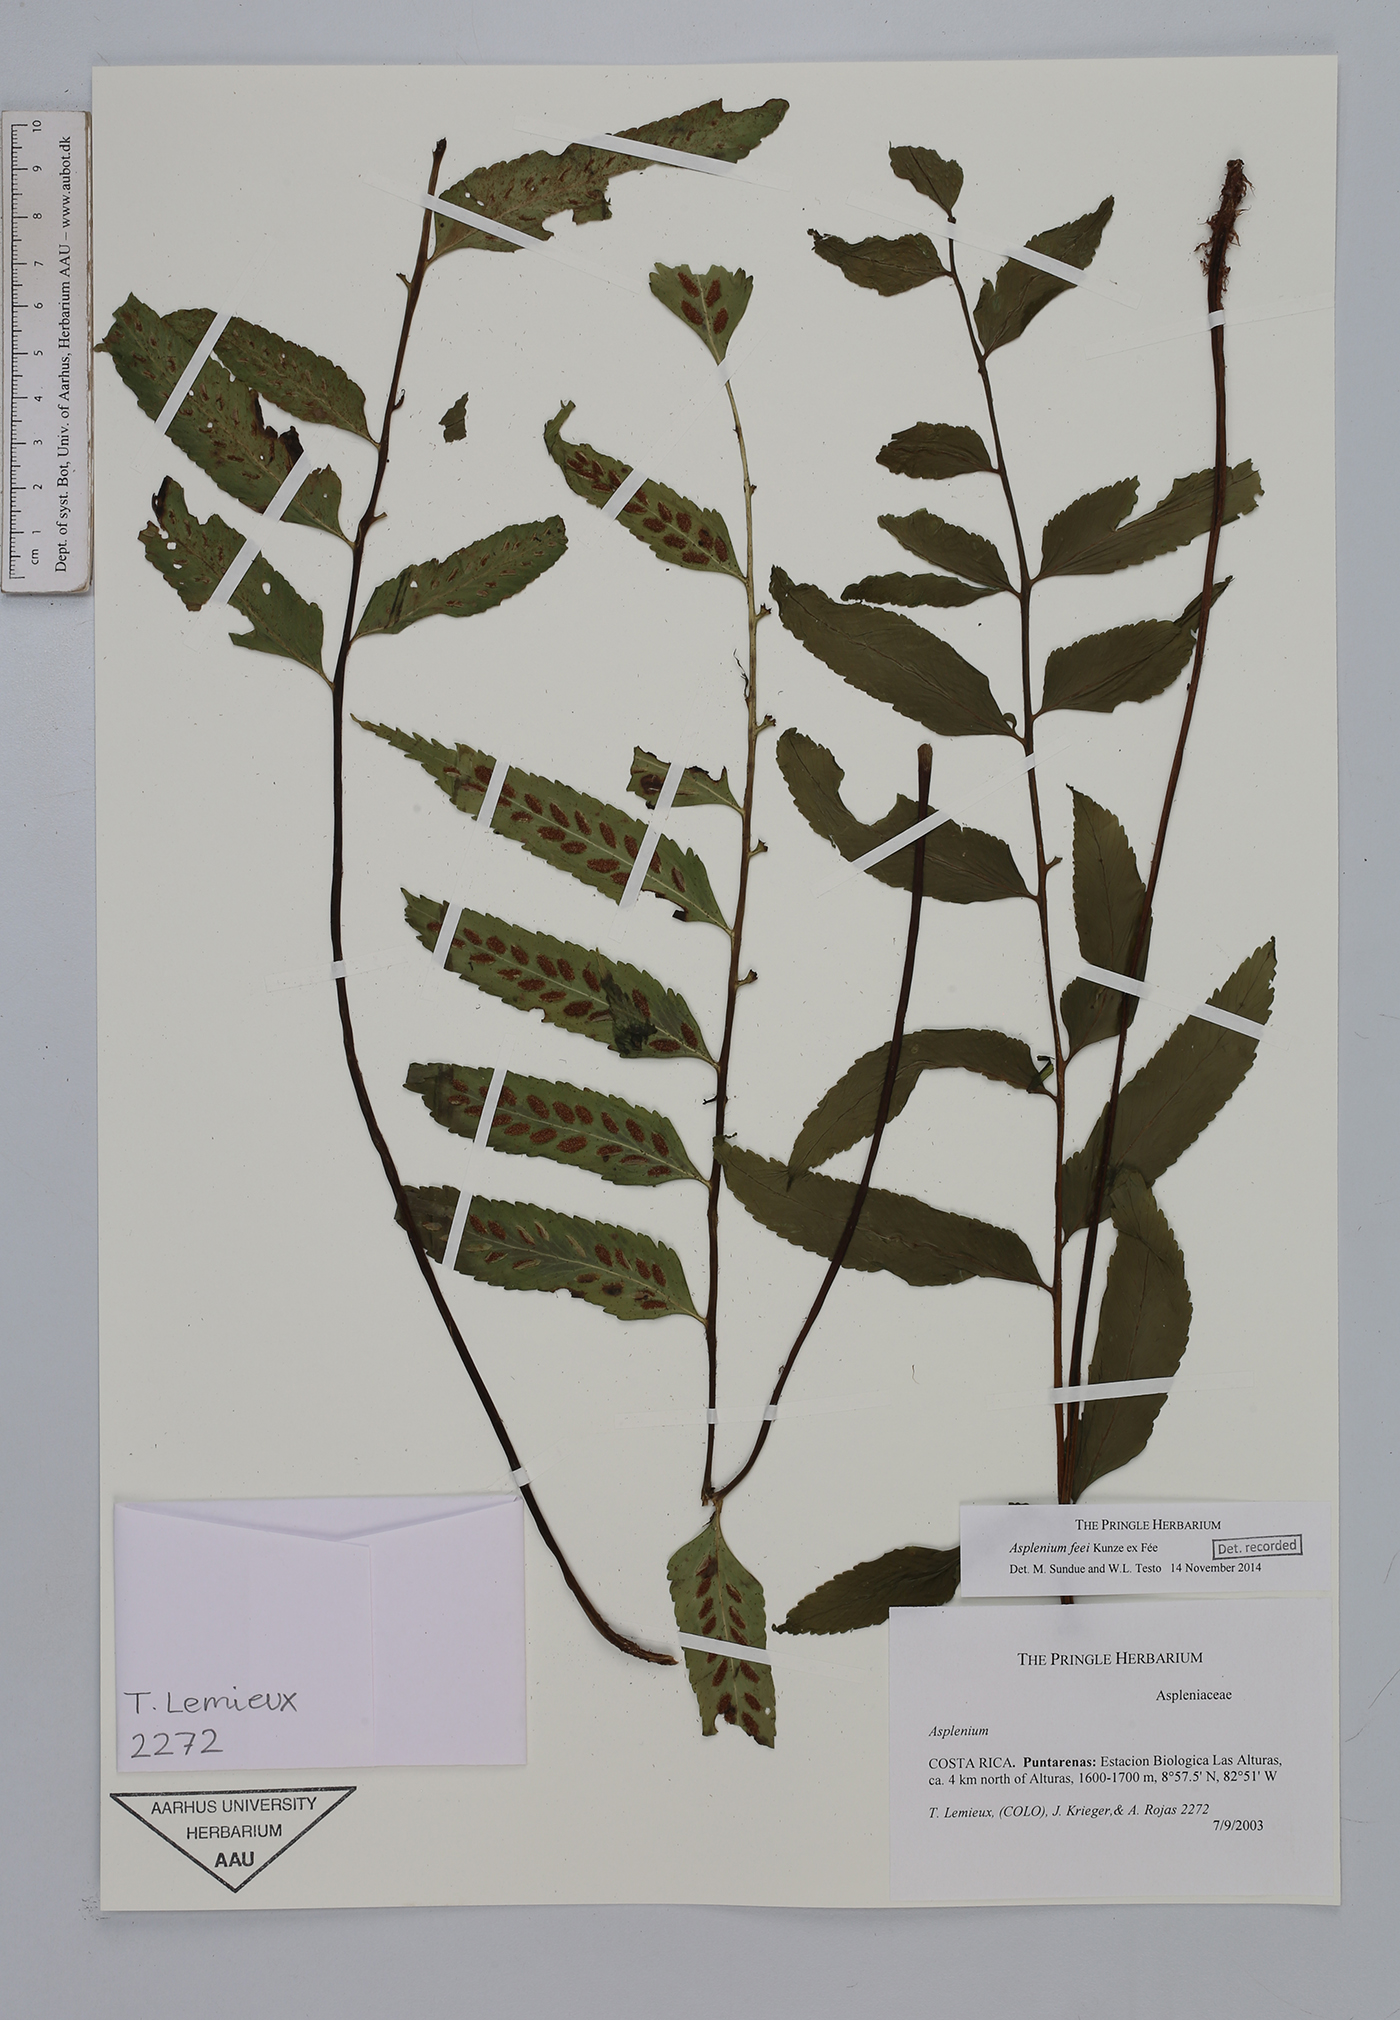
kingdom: Plantae
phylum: Tracheophyta
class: Polypodiopsida
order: Polypodiales
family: Aspleniaceae
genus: Asplenium
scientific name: Asplenium feei
